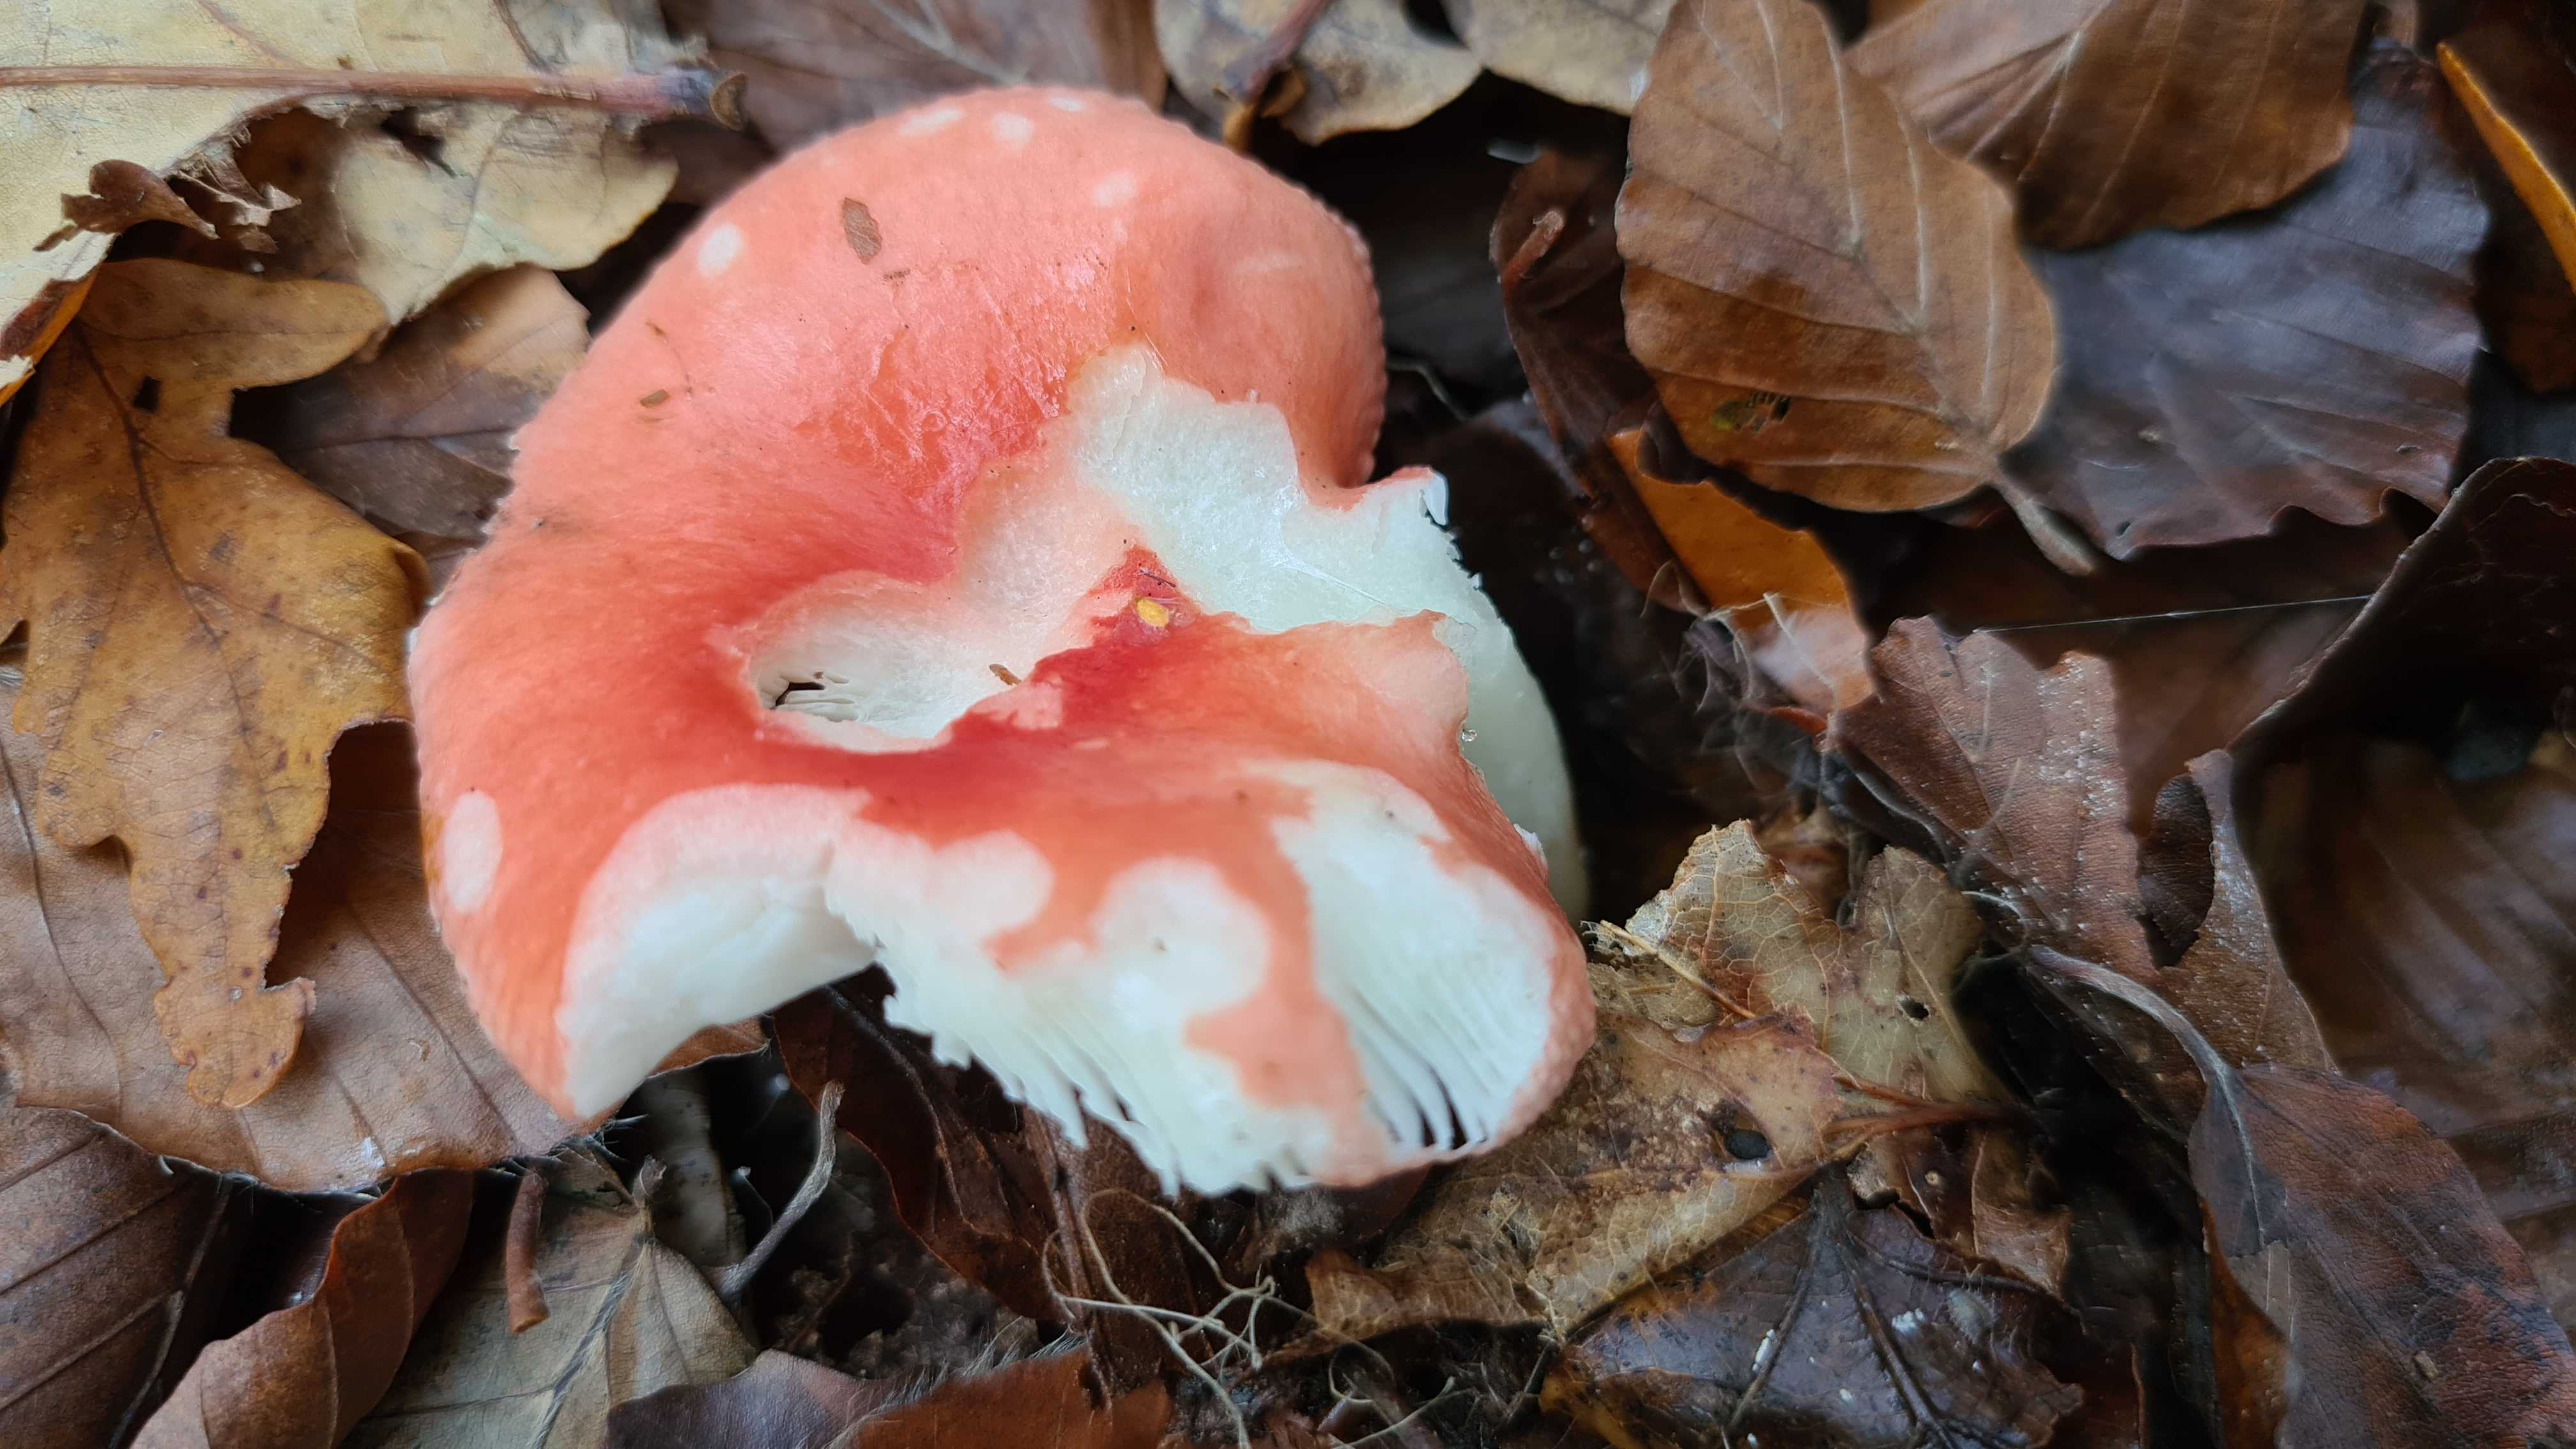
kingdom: Fungi
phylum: Basidiomycota
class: Agaricomycetes
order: Russulales
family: Russulaceae
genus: Russula
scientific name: Russula
